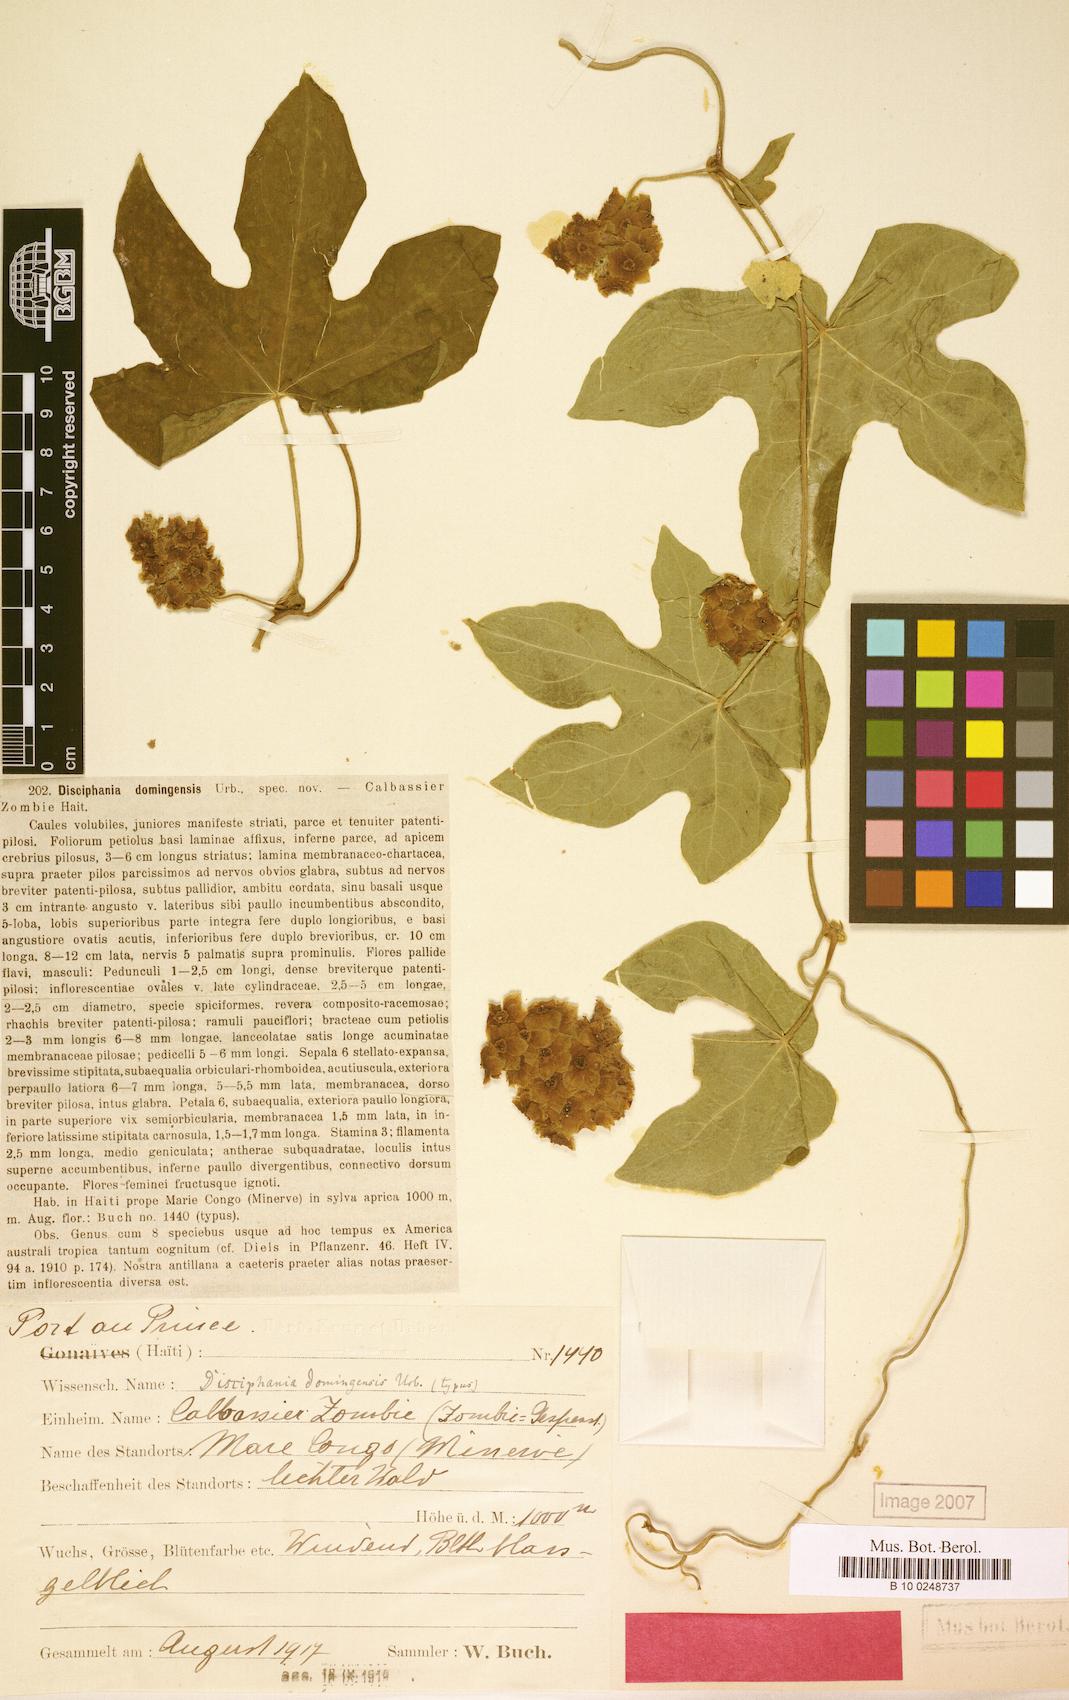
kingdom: Plantae
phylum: Tracheophyta
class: Magnoliopsida
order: Ranunculales
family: Menispermaceae
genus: Disciphania
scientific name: Disciphania domingensis
